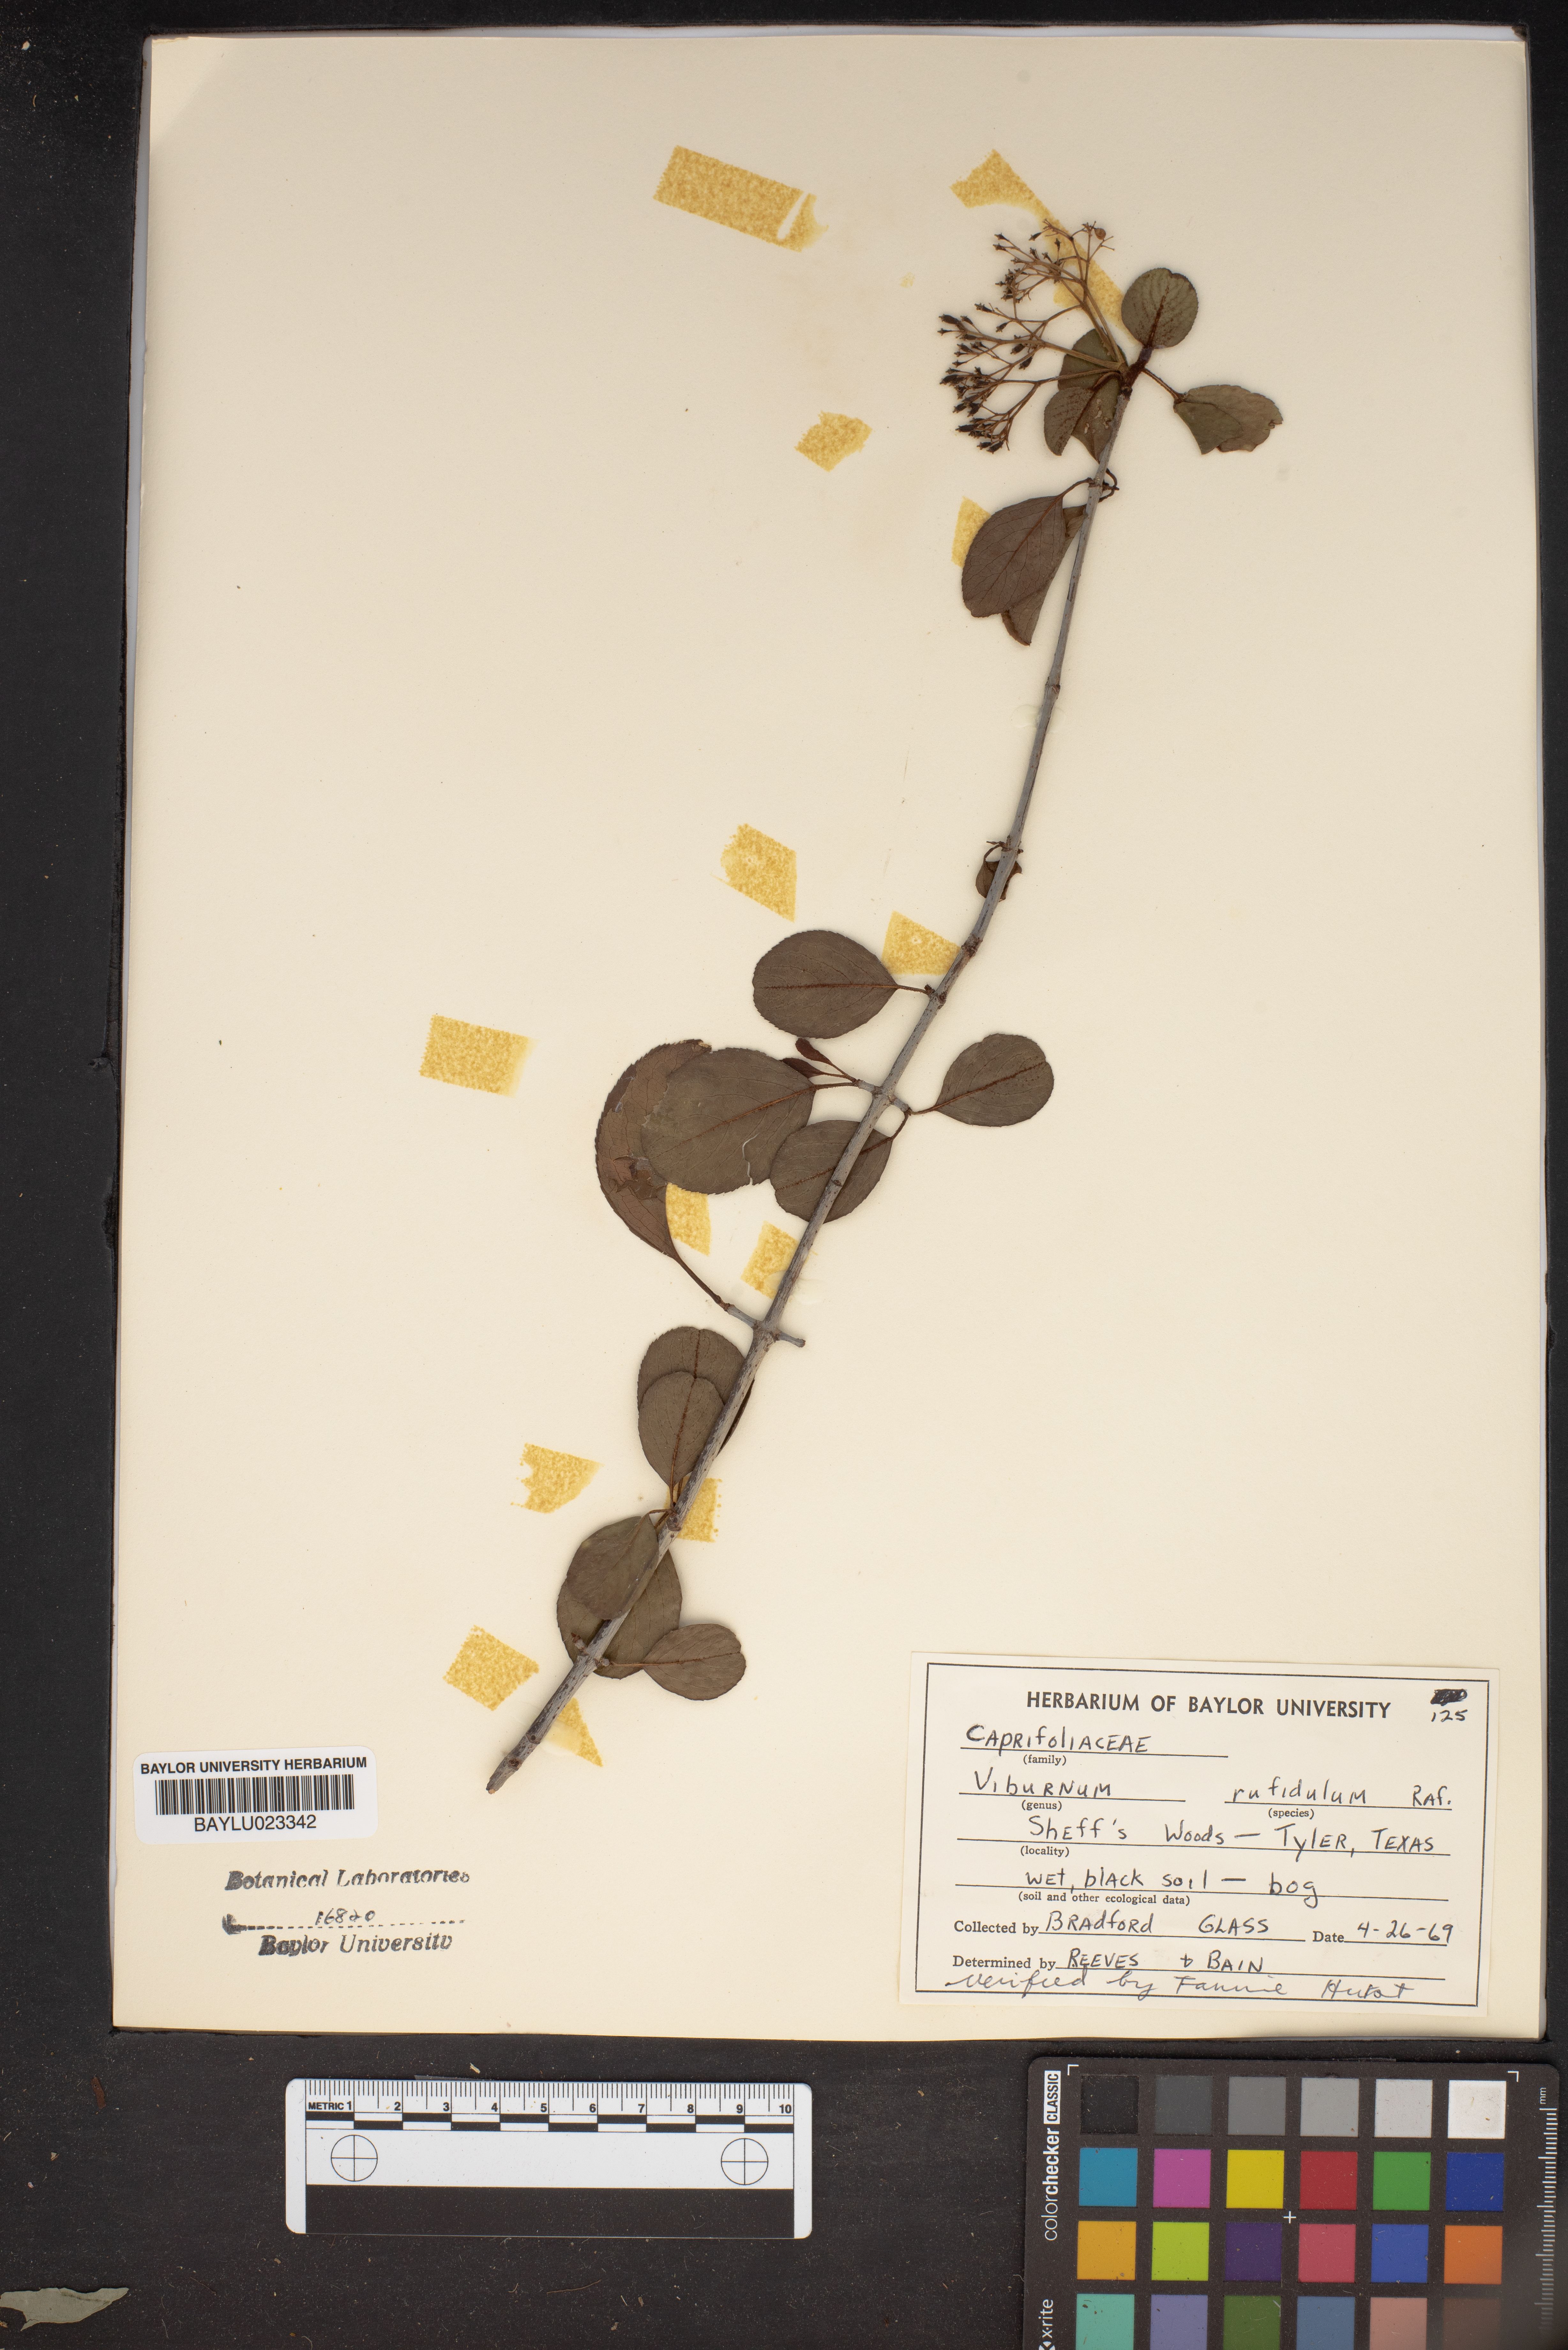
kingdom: Plantae
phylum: Tracheophyta
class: Magnoliopsida
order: Dipsacales
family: Viburnaceae
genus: Viburnum
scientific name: Viburnum rufidulum
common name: Blue haw
